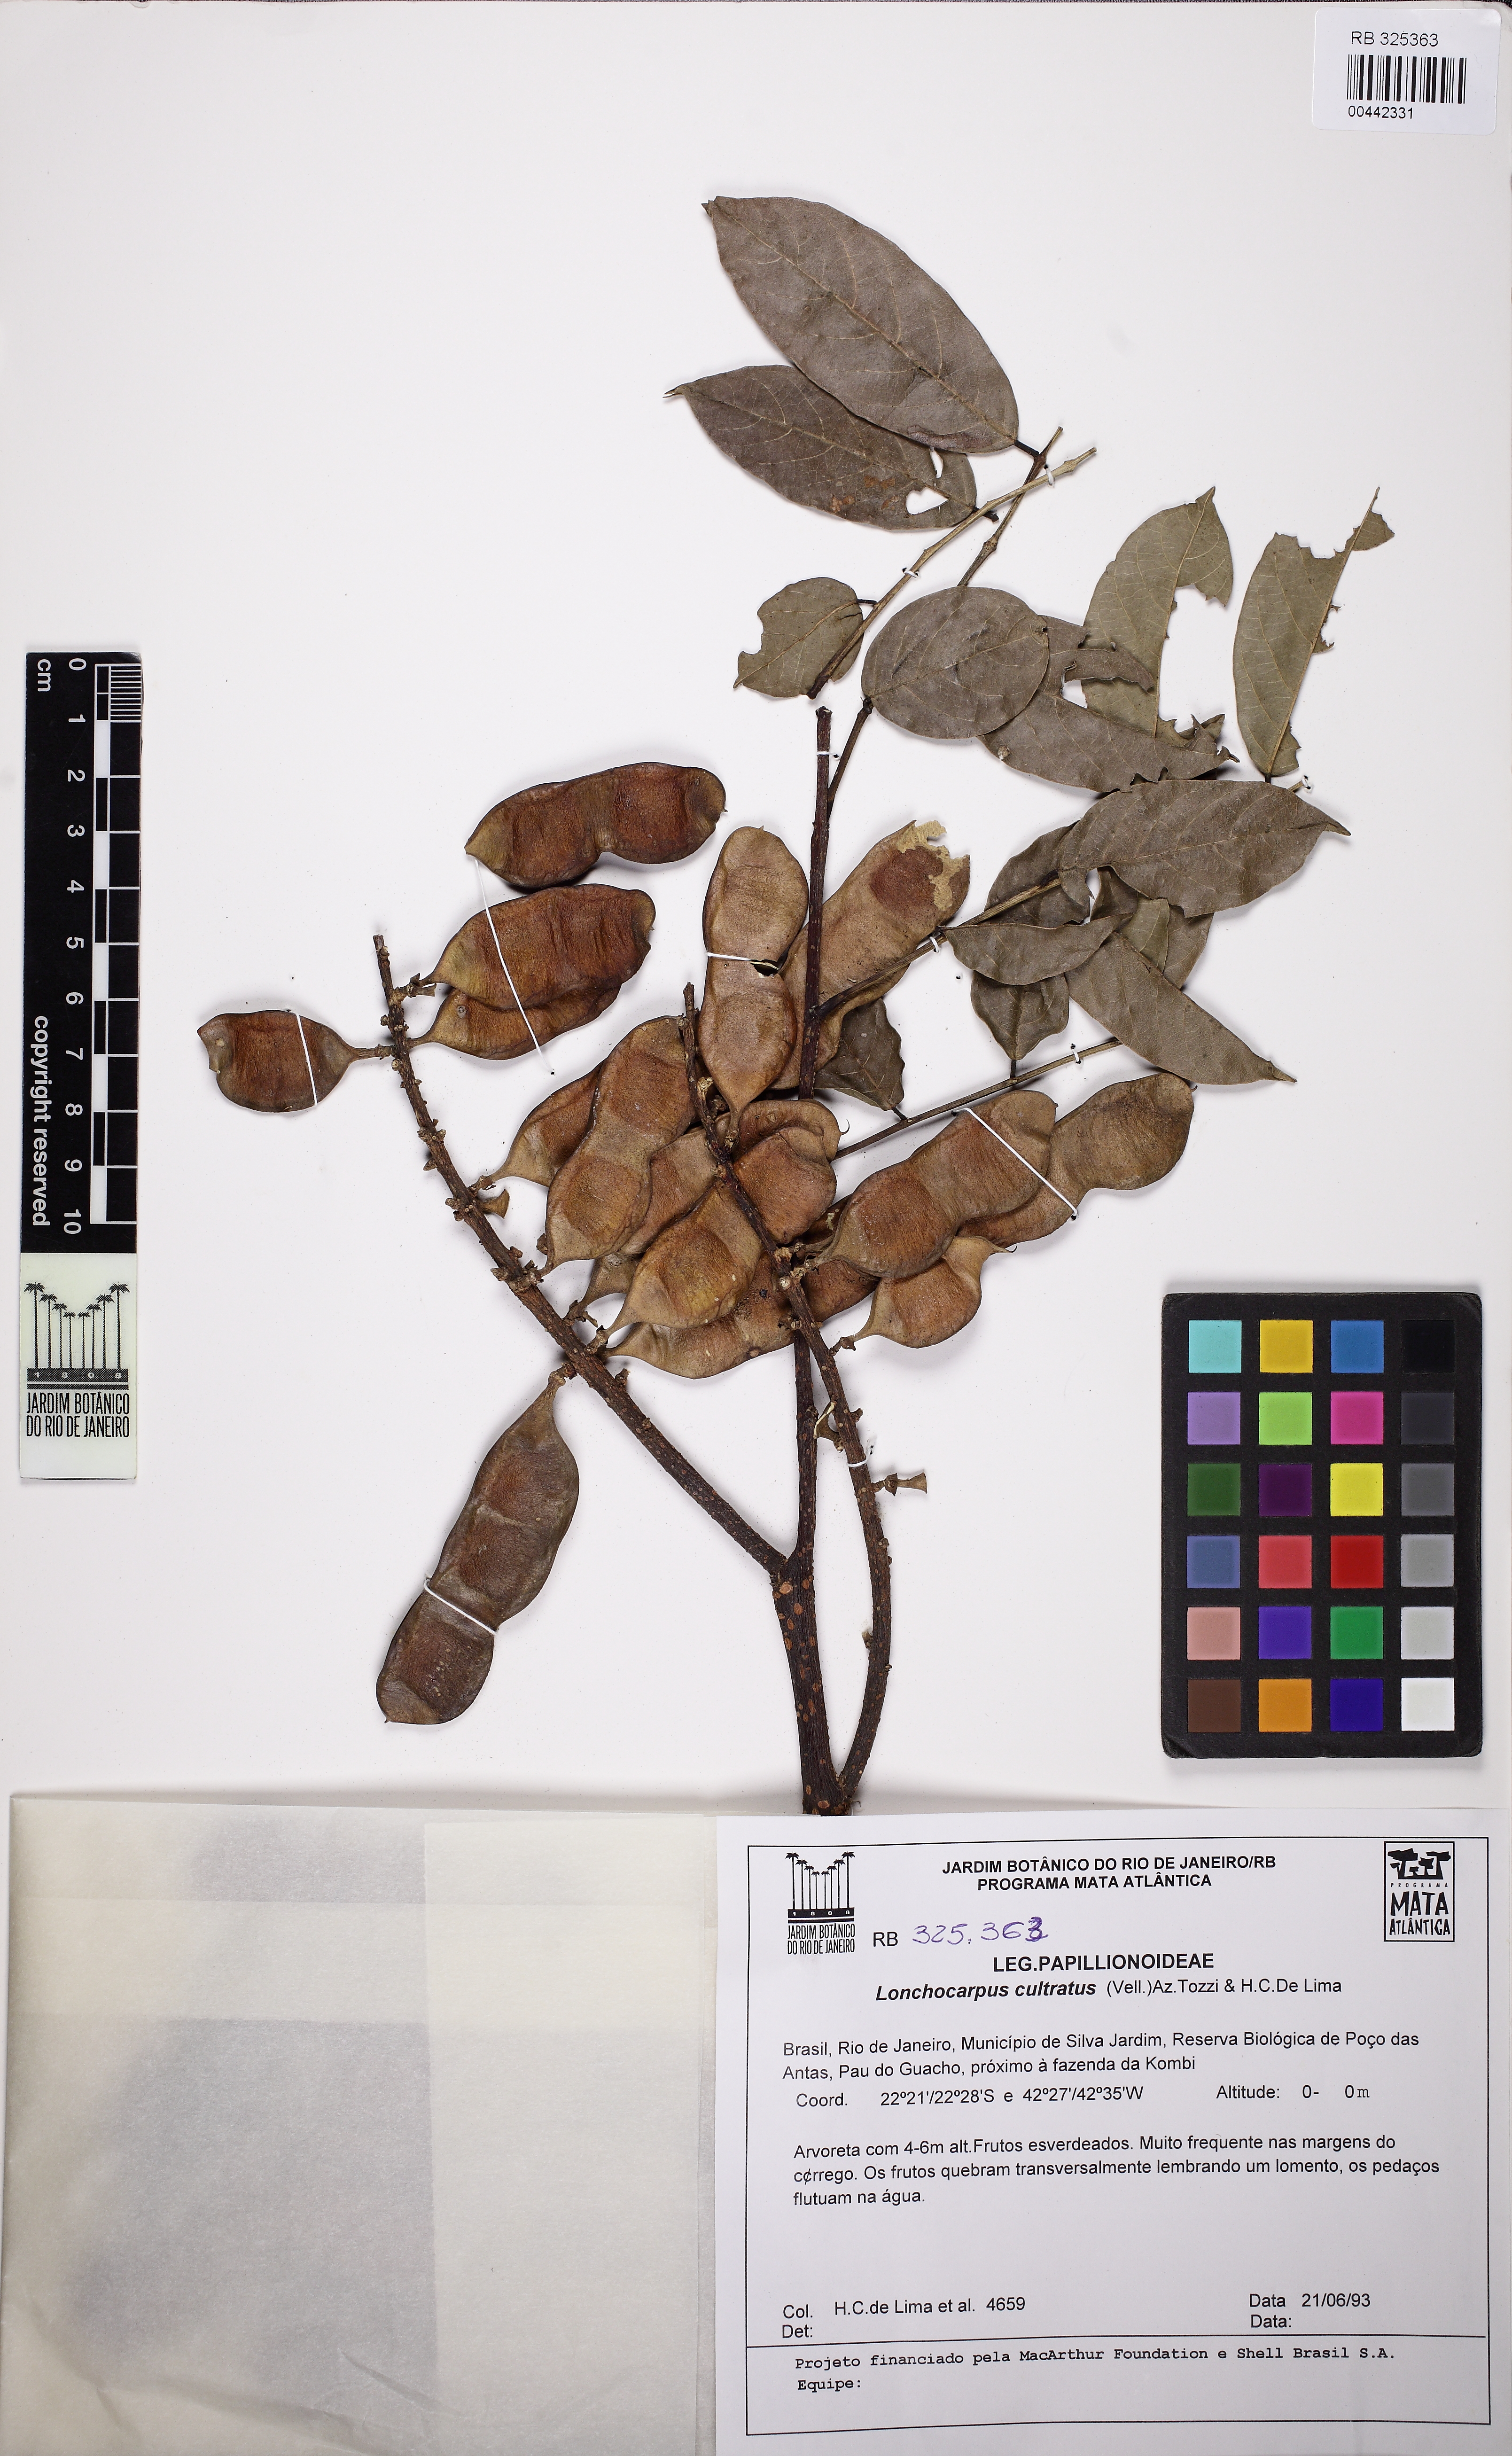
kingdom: Plantae
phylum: Tracheophyta
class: Magnoliopsida
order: Fabales
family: Fabaceae
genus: Lonchocarpus
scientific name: Lonchocarpus cultratus
